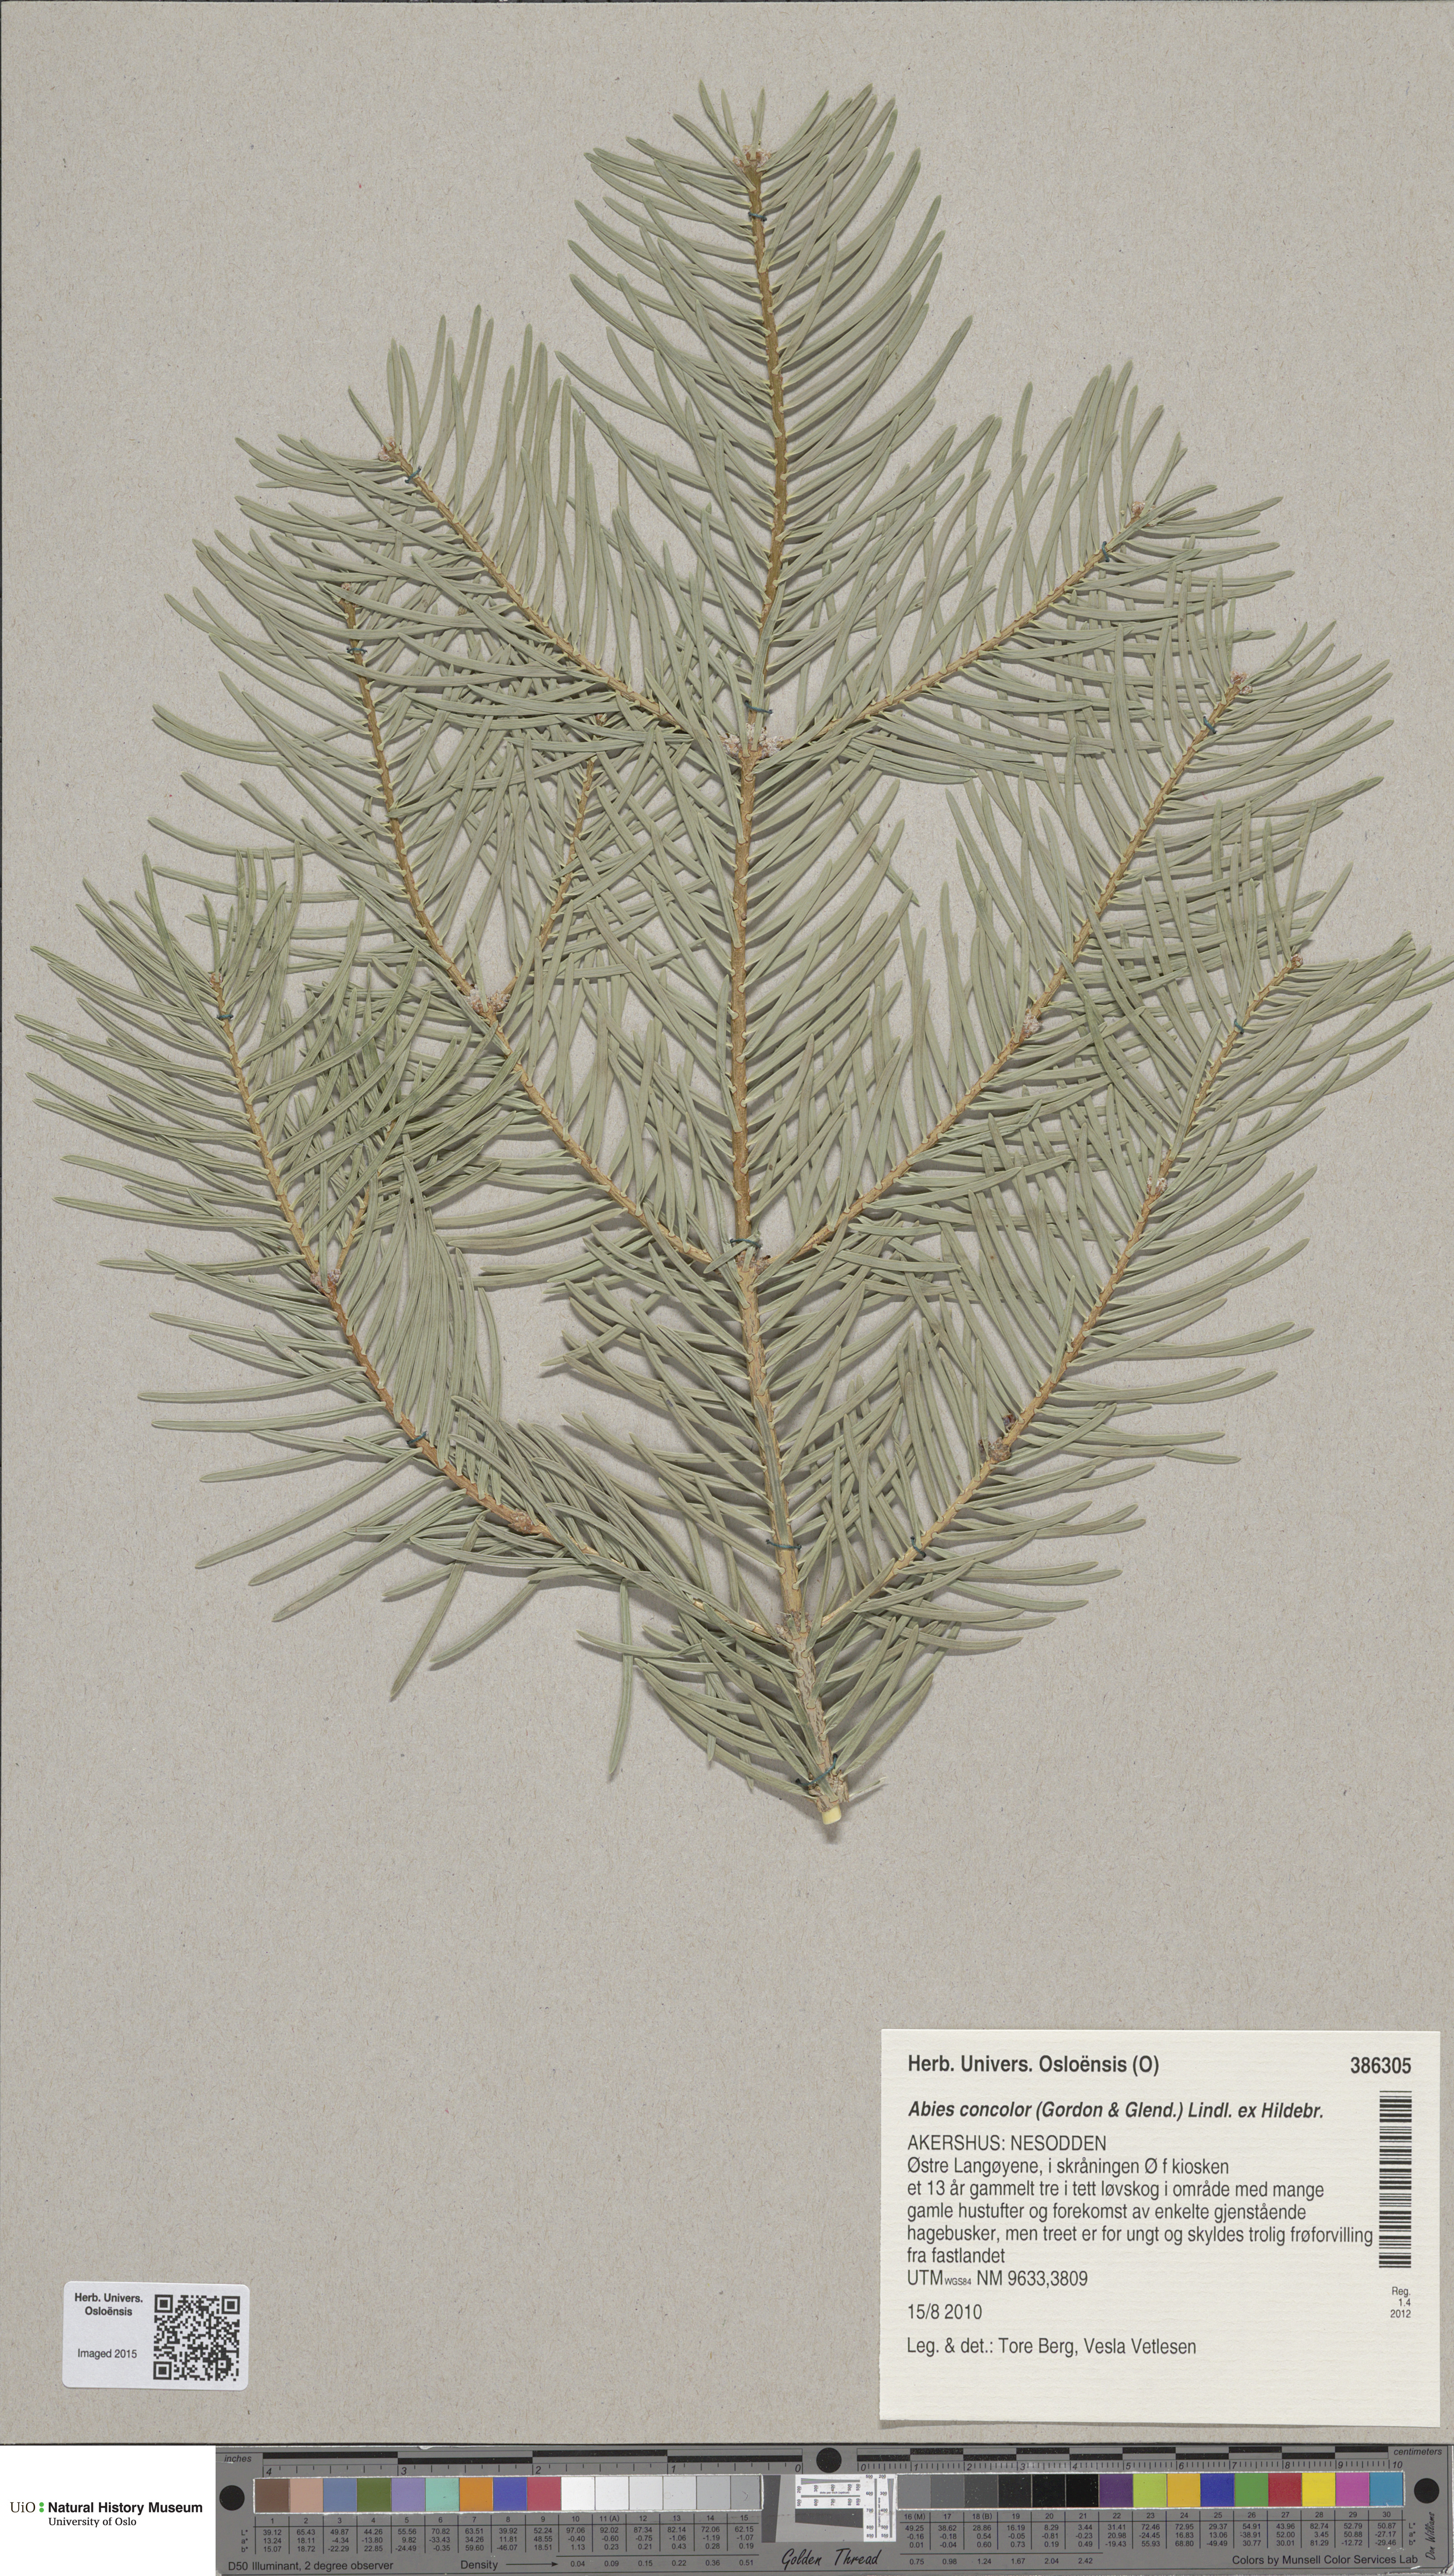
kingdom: Plantae
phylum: Tracheophyta
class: Pinopsida
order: Pinales
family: Pinaceae
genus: Abies
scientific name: Abies concolor
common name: Colorado fir
